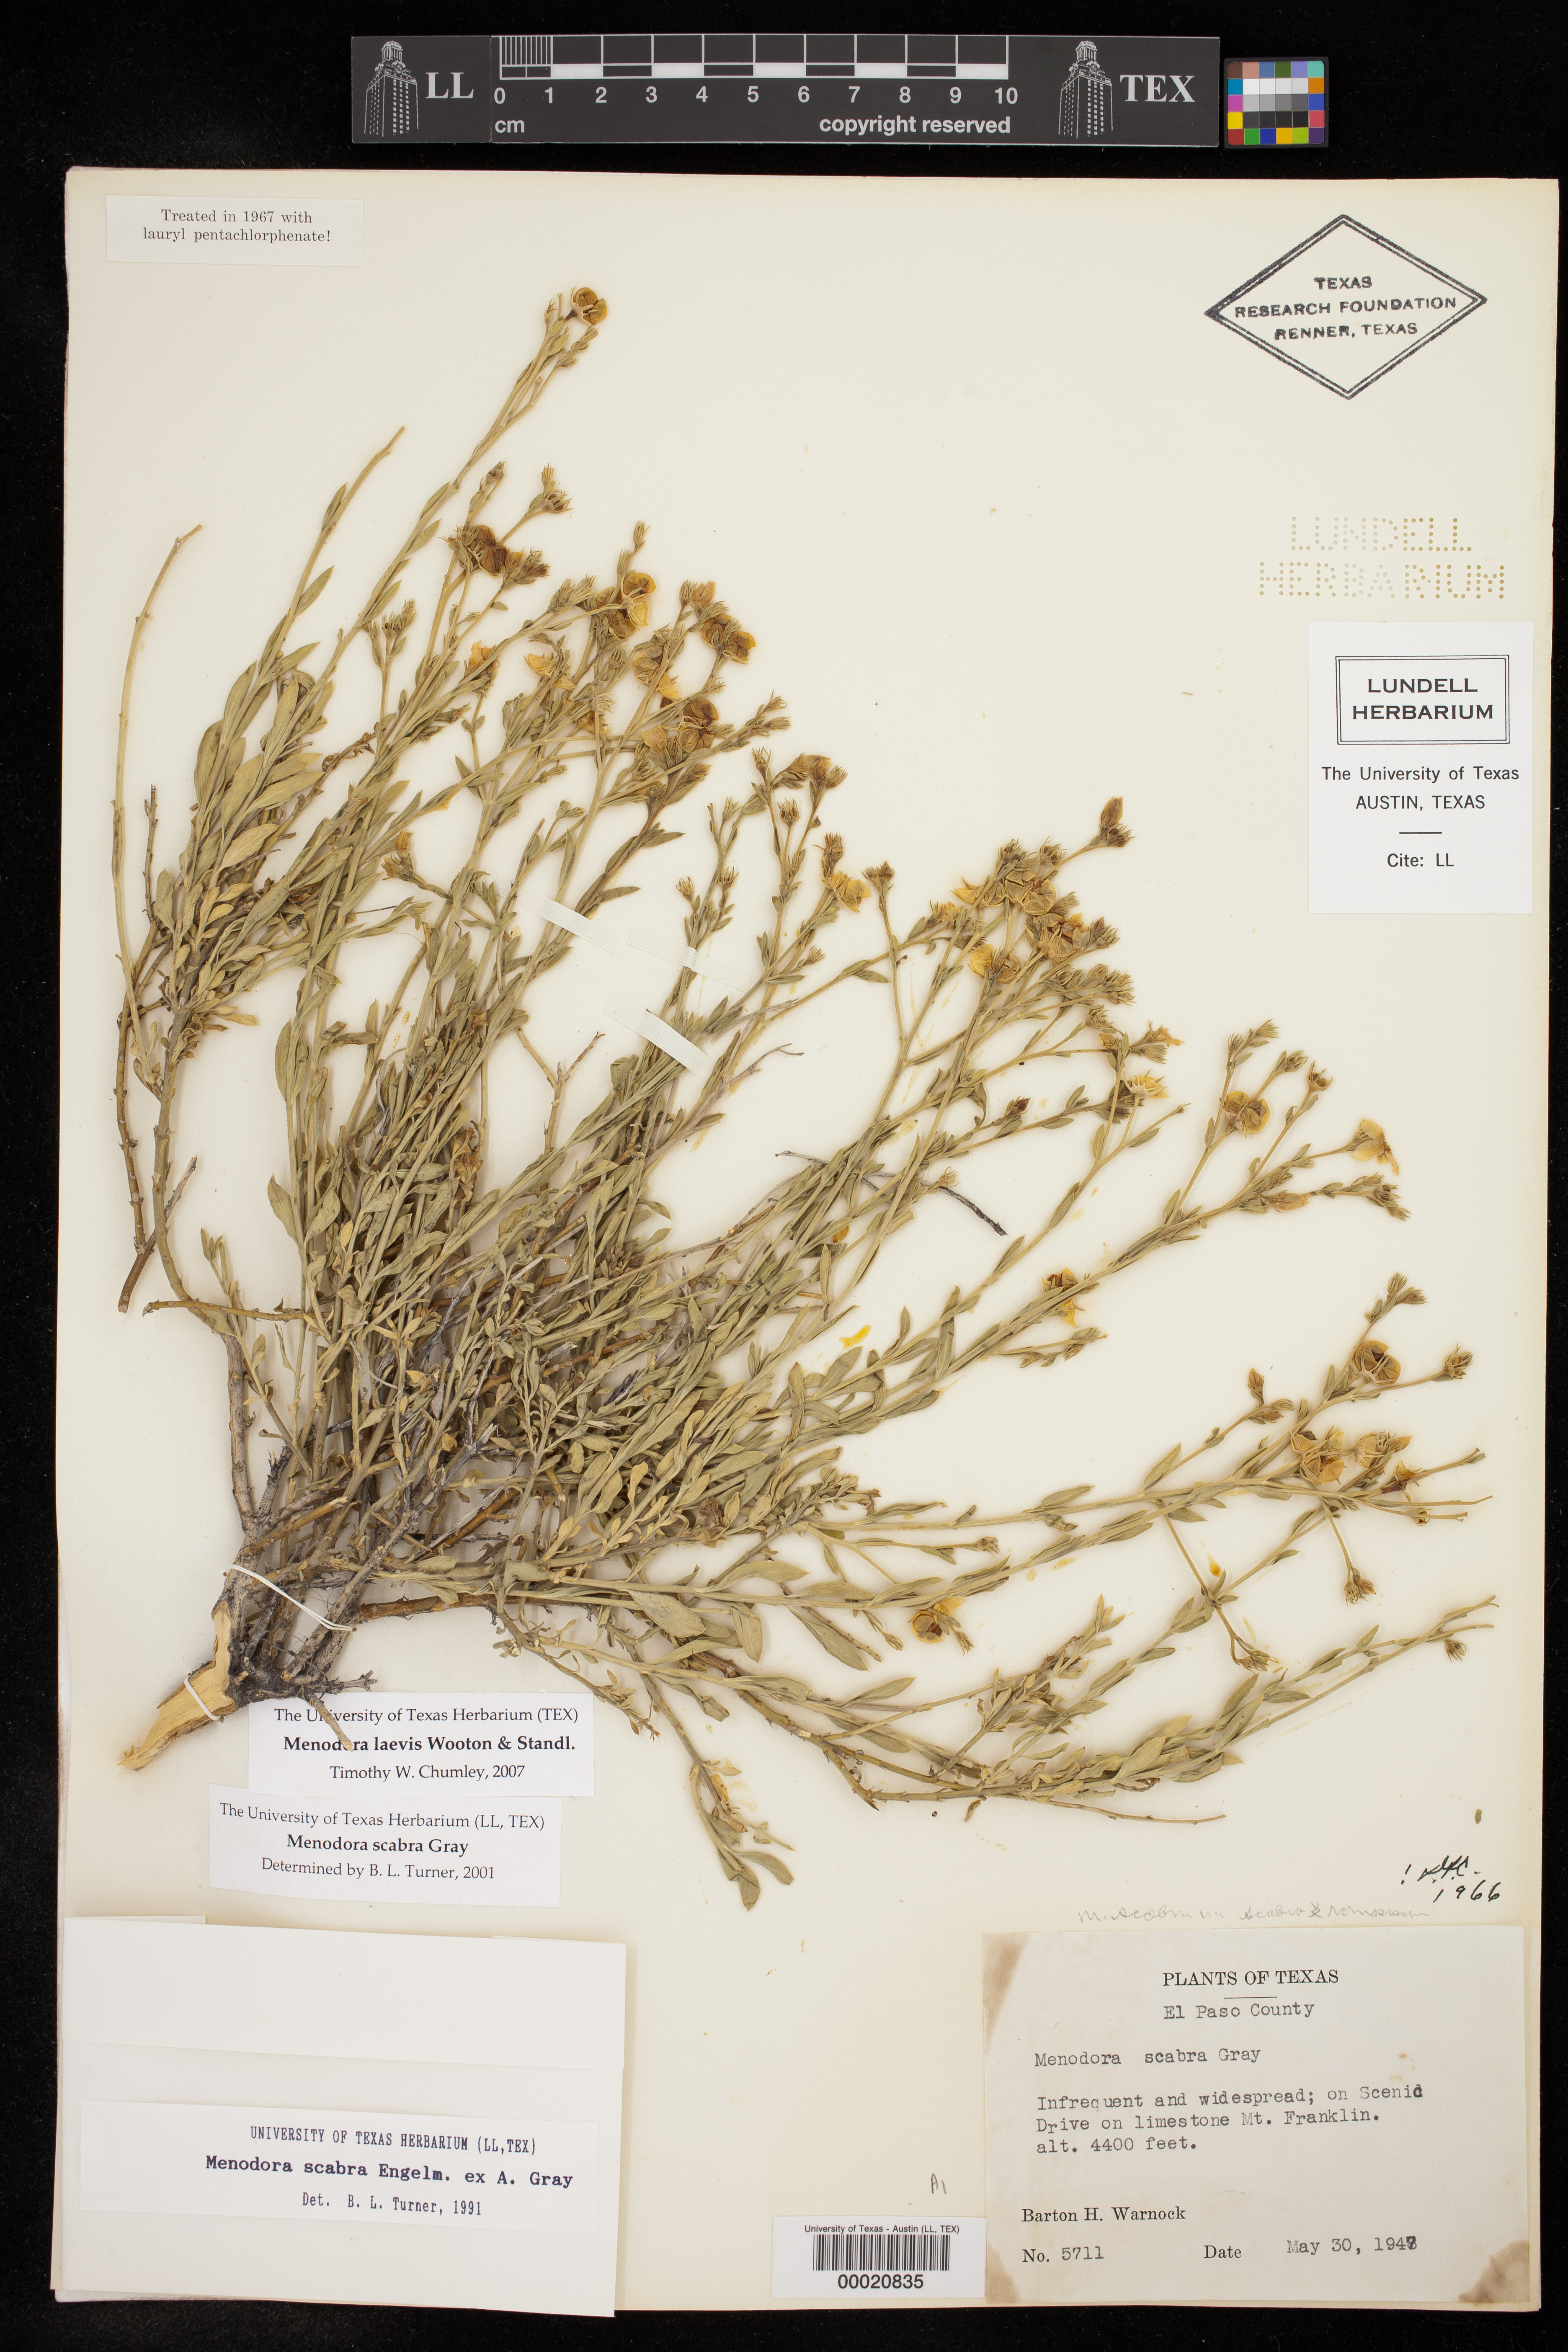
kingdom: Plantae
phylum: Tracheophyta
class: Magnoliopsida
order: Lamiales
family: Oleaceae
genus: Menodora
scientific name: Menodora scabra
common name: Rough menodora
